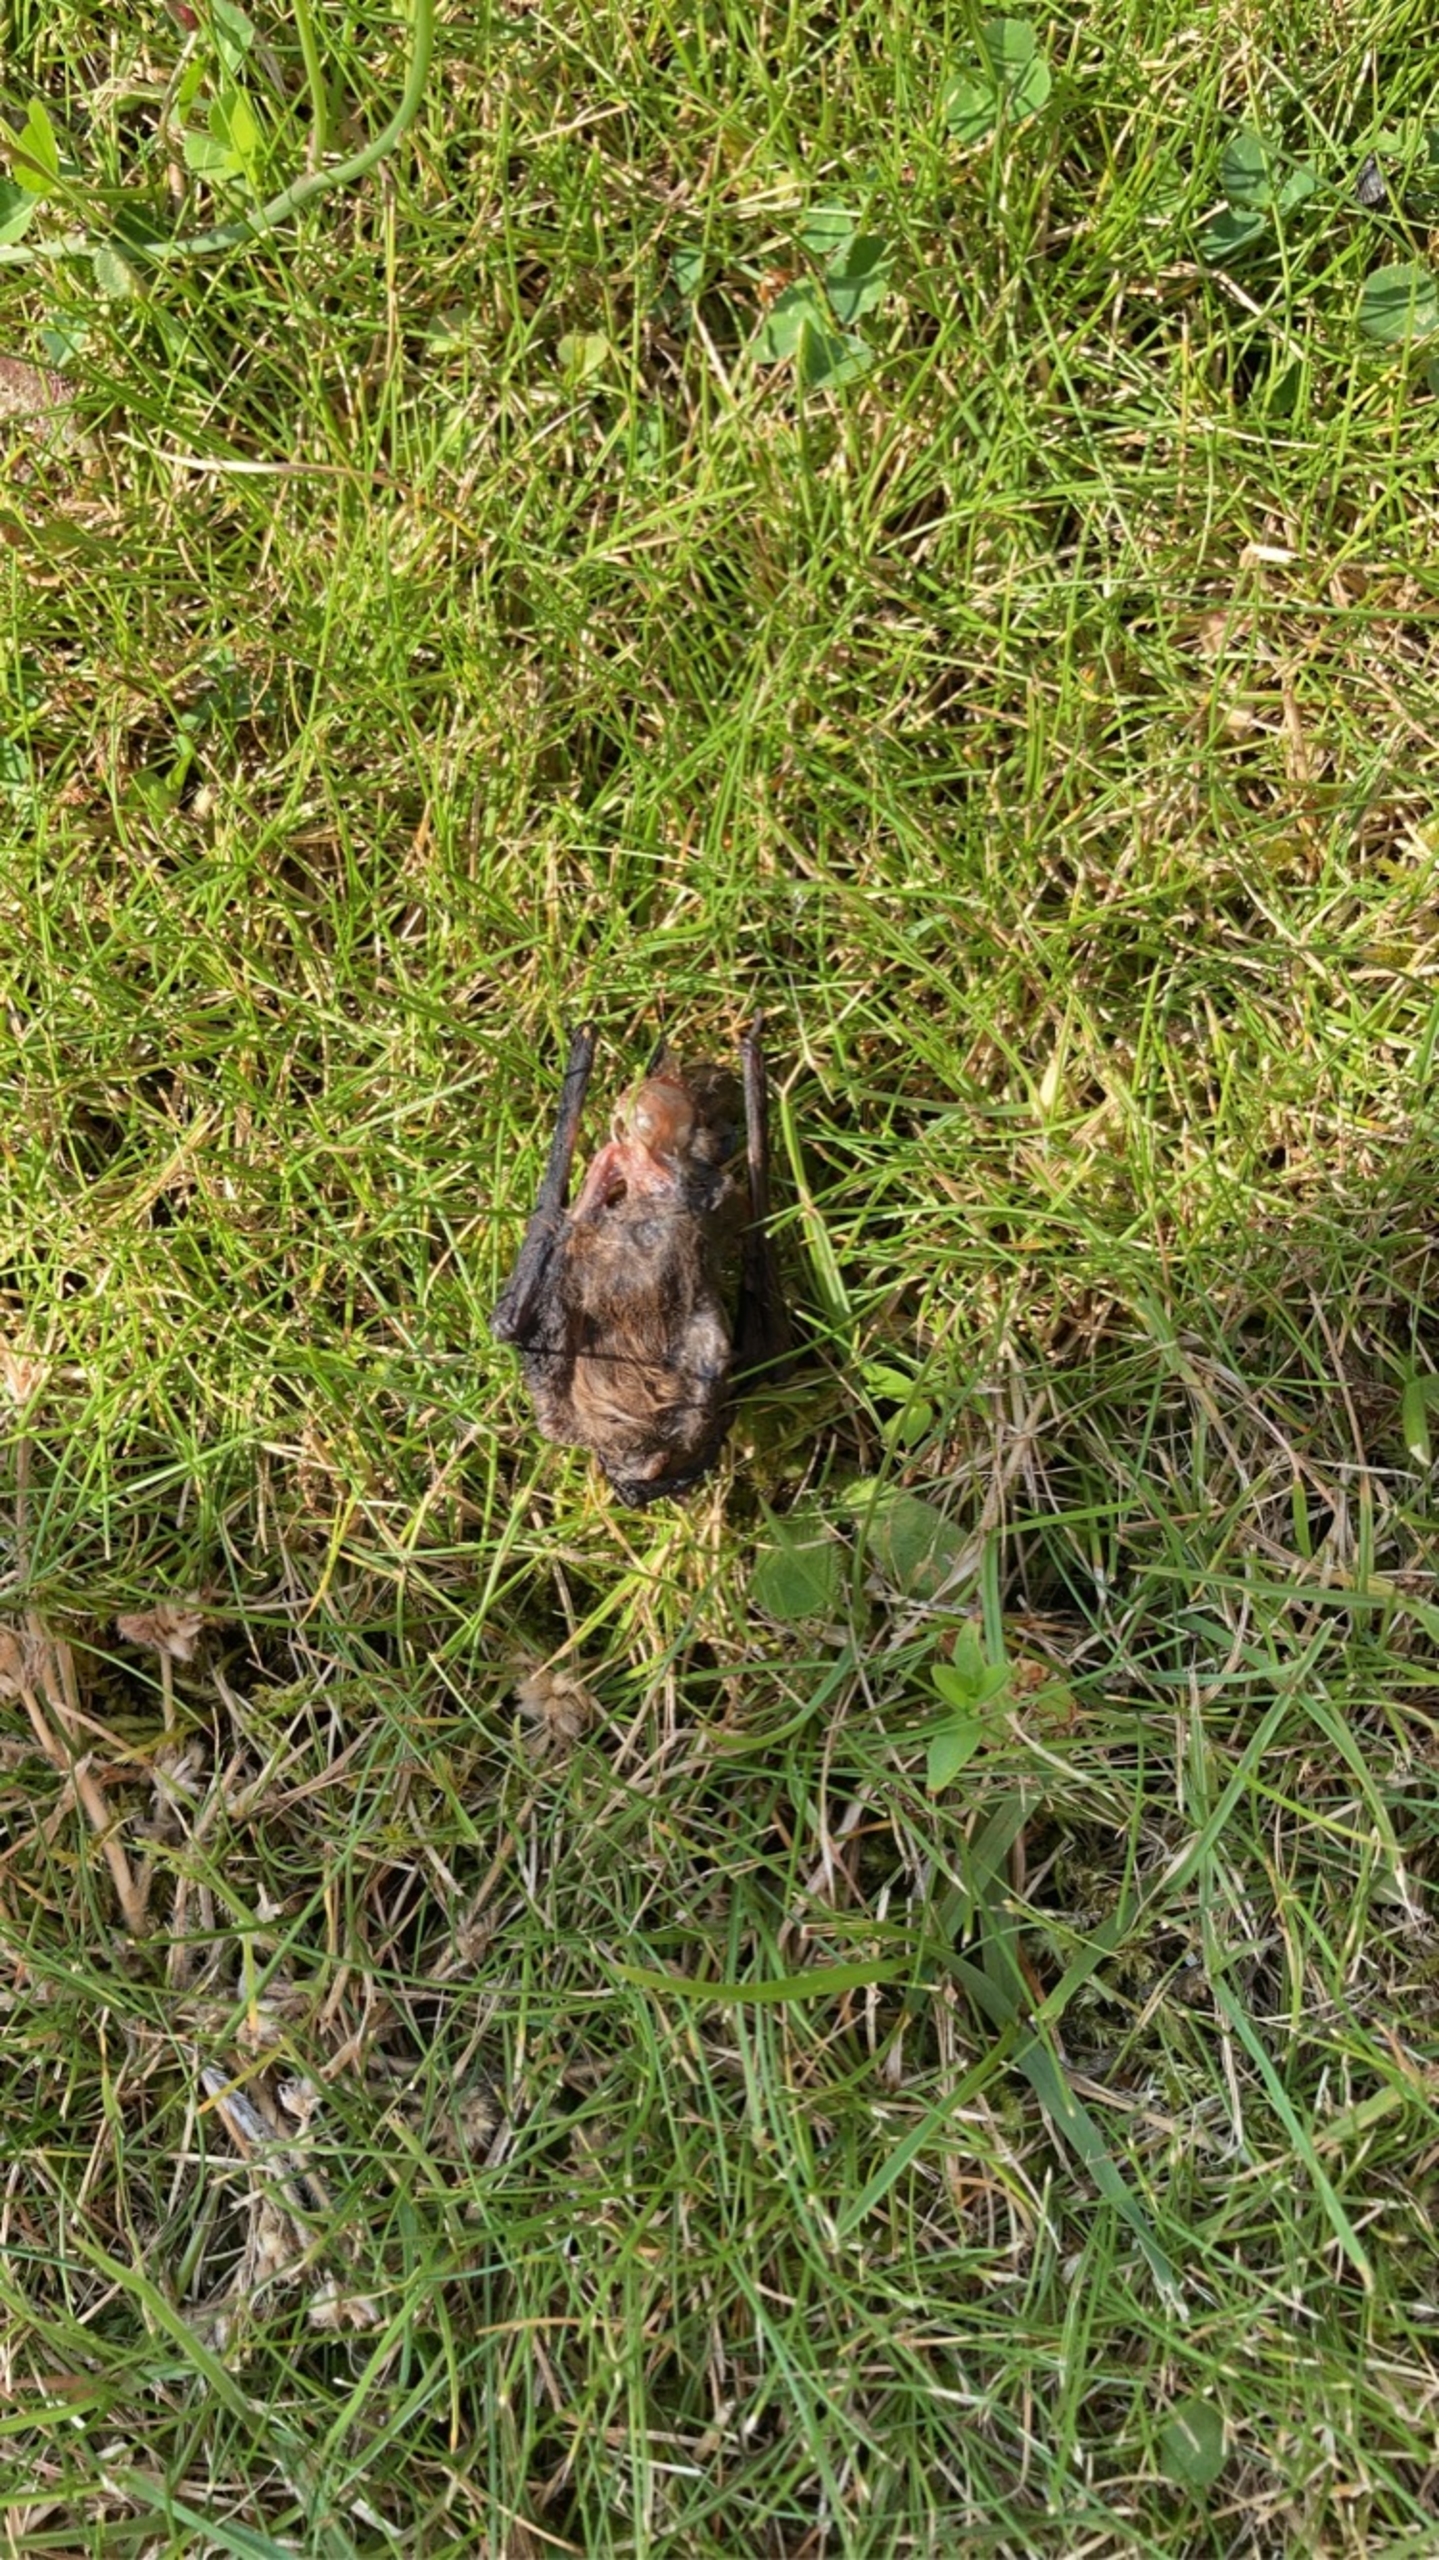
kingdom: Animalia
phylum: Chordata
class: Mammalia
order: Chiroptera
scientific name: Chiroptera
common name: Flagermus
